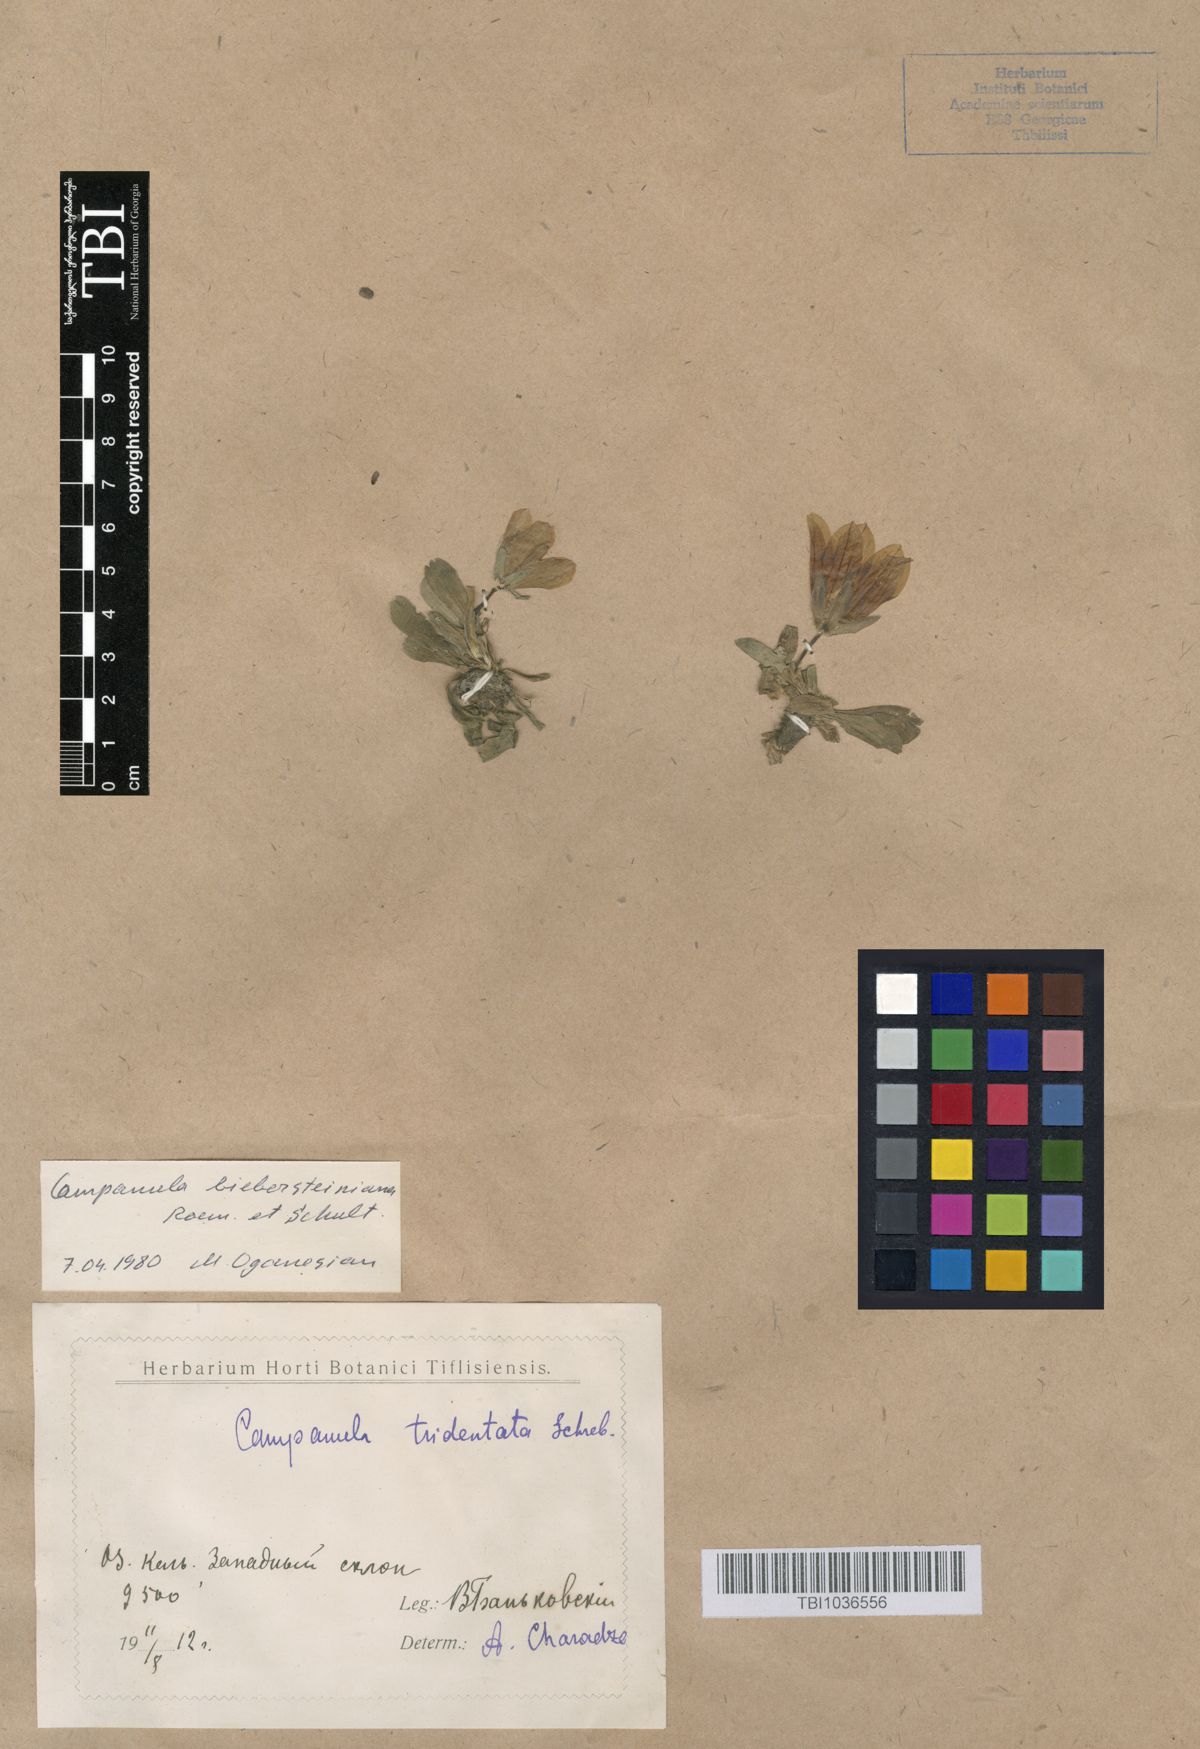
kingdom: Plantae
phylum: Tracheophyta
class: Magnoliopsida
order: Asterales
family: Campanulaceae
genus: Campanula
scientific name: Campanula tridentata
